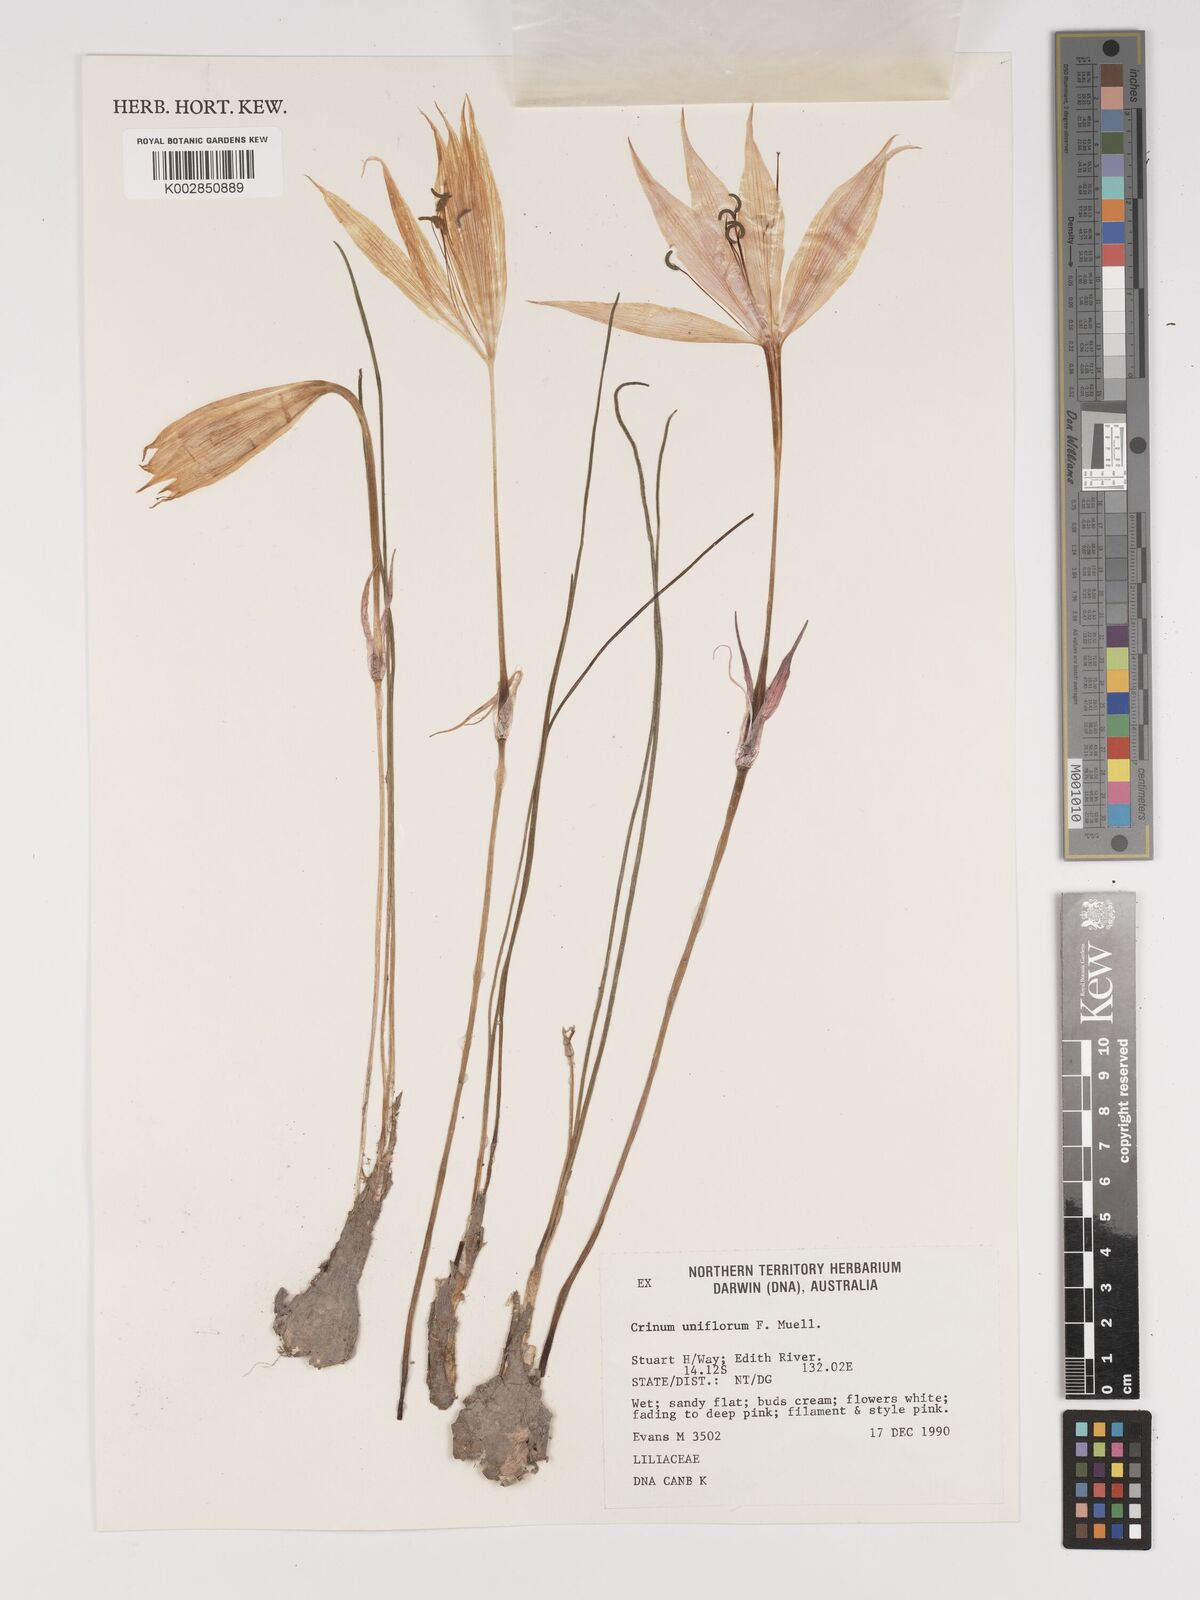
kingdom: Plantae
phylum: Tracheophyta
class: Liliopsida
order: Asparagales
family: Amaryllidaceae
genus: Crinum
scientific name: Crinum uniflorum
